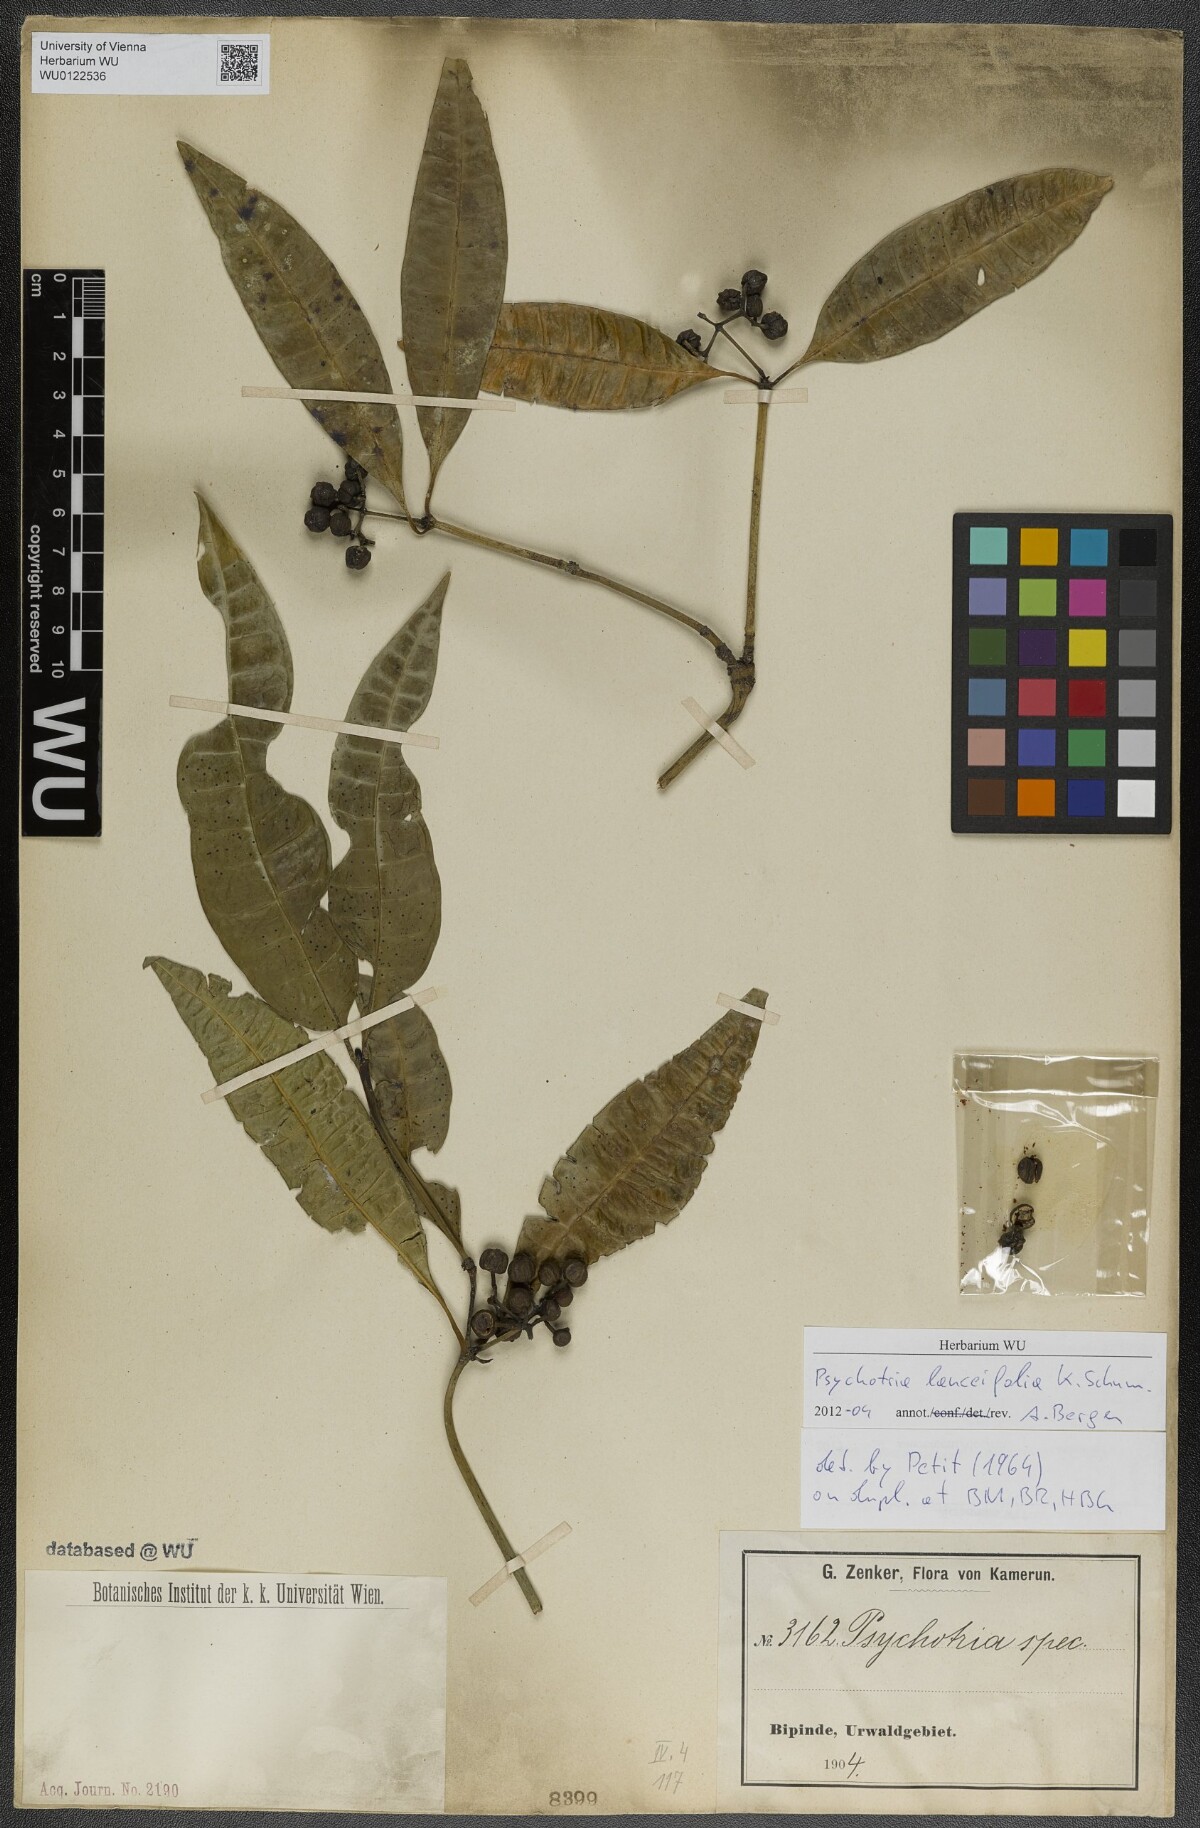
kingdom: Plantae
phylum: Tracheophyta
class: Magnoliopsida
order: Gentianales
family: Rubiaceae
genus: Psychotria
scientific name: Psychotria lanceifolia
